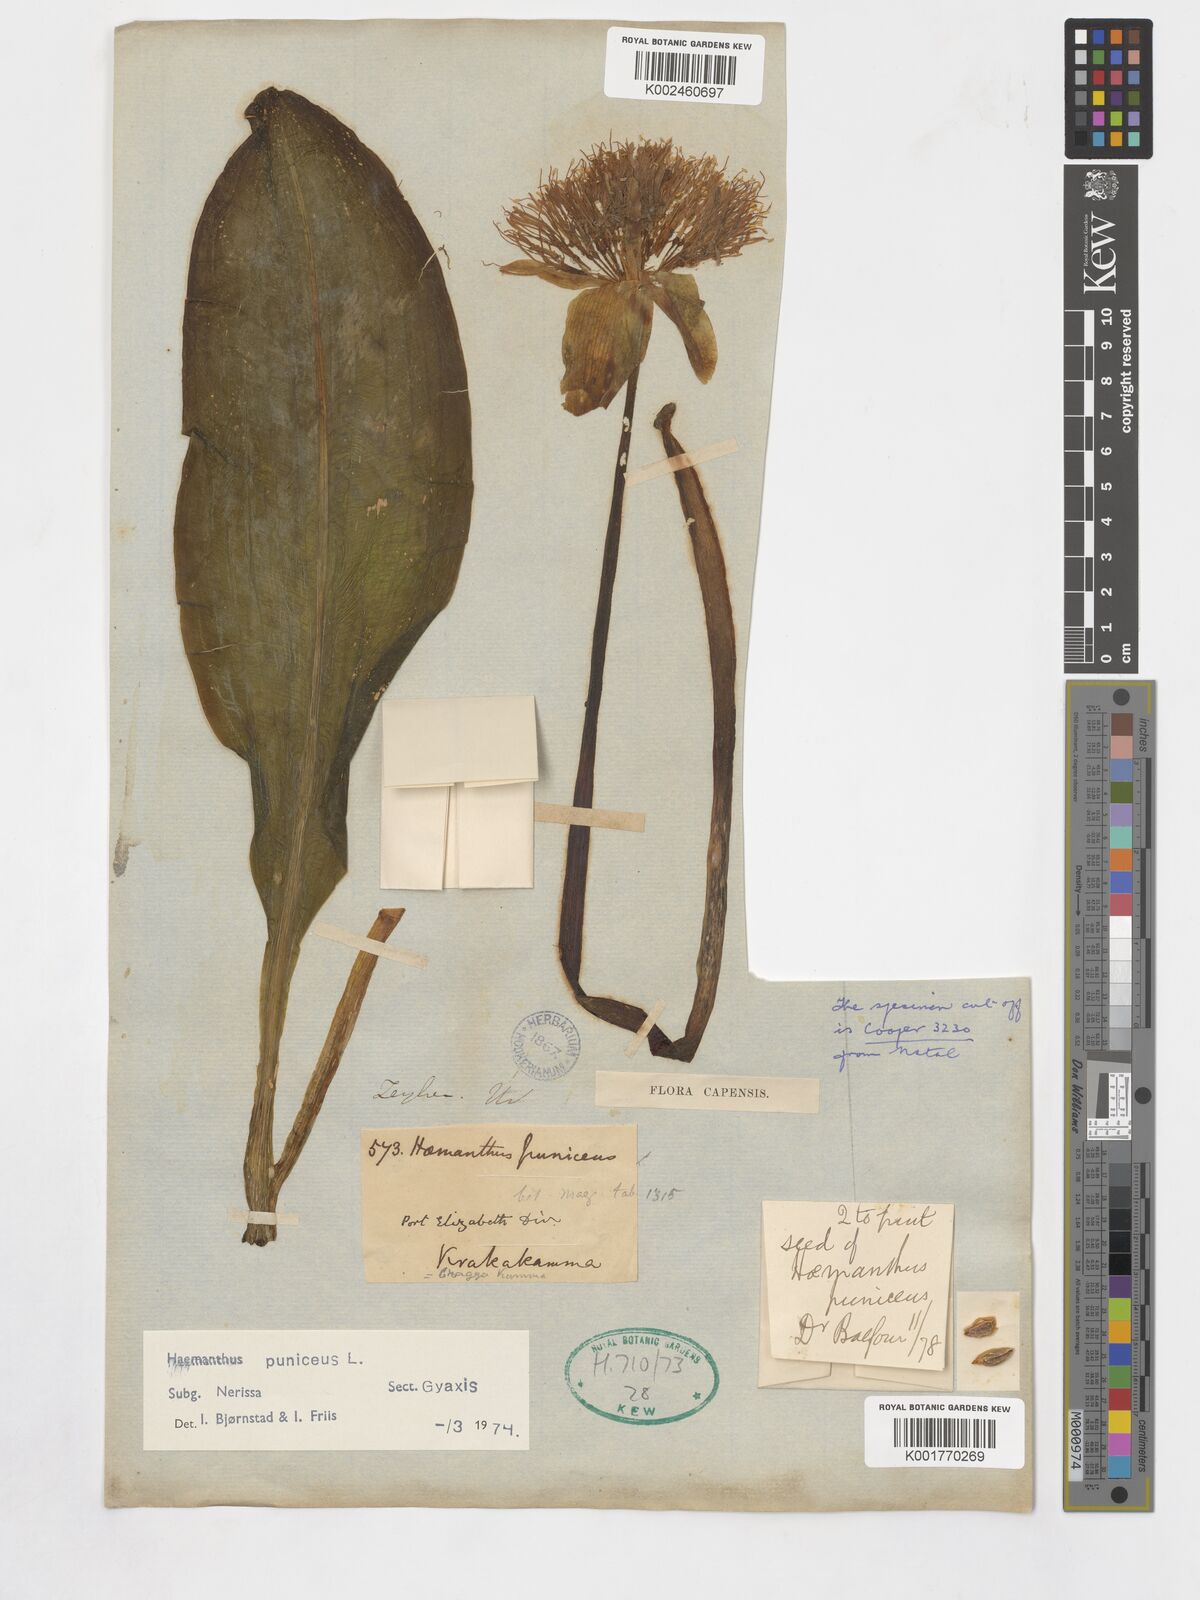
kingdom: Plantae
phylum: Tracheophyta
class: Liliopsida
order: Asparagales
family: Amaryllidaceae
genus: Scadoxus
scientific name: Scadoxus puniceus
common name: Royal-paintbrush
